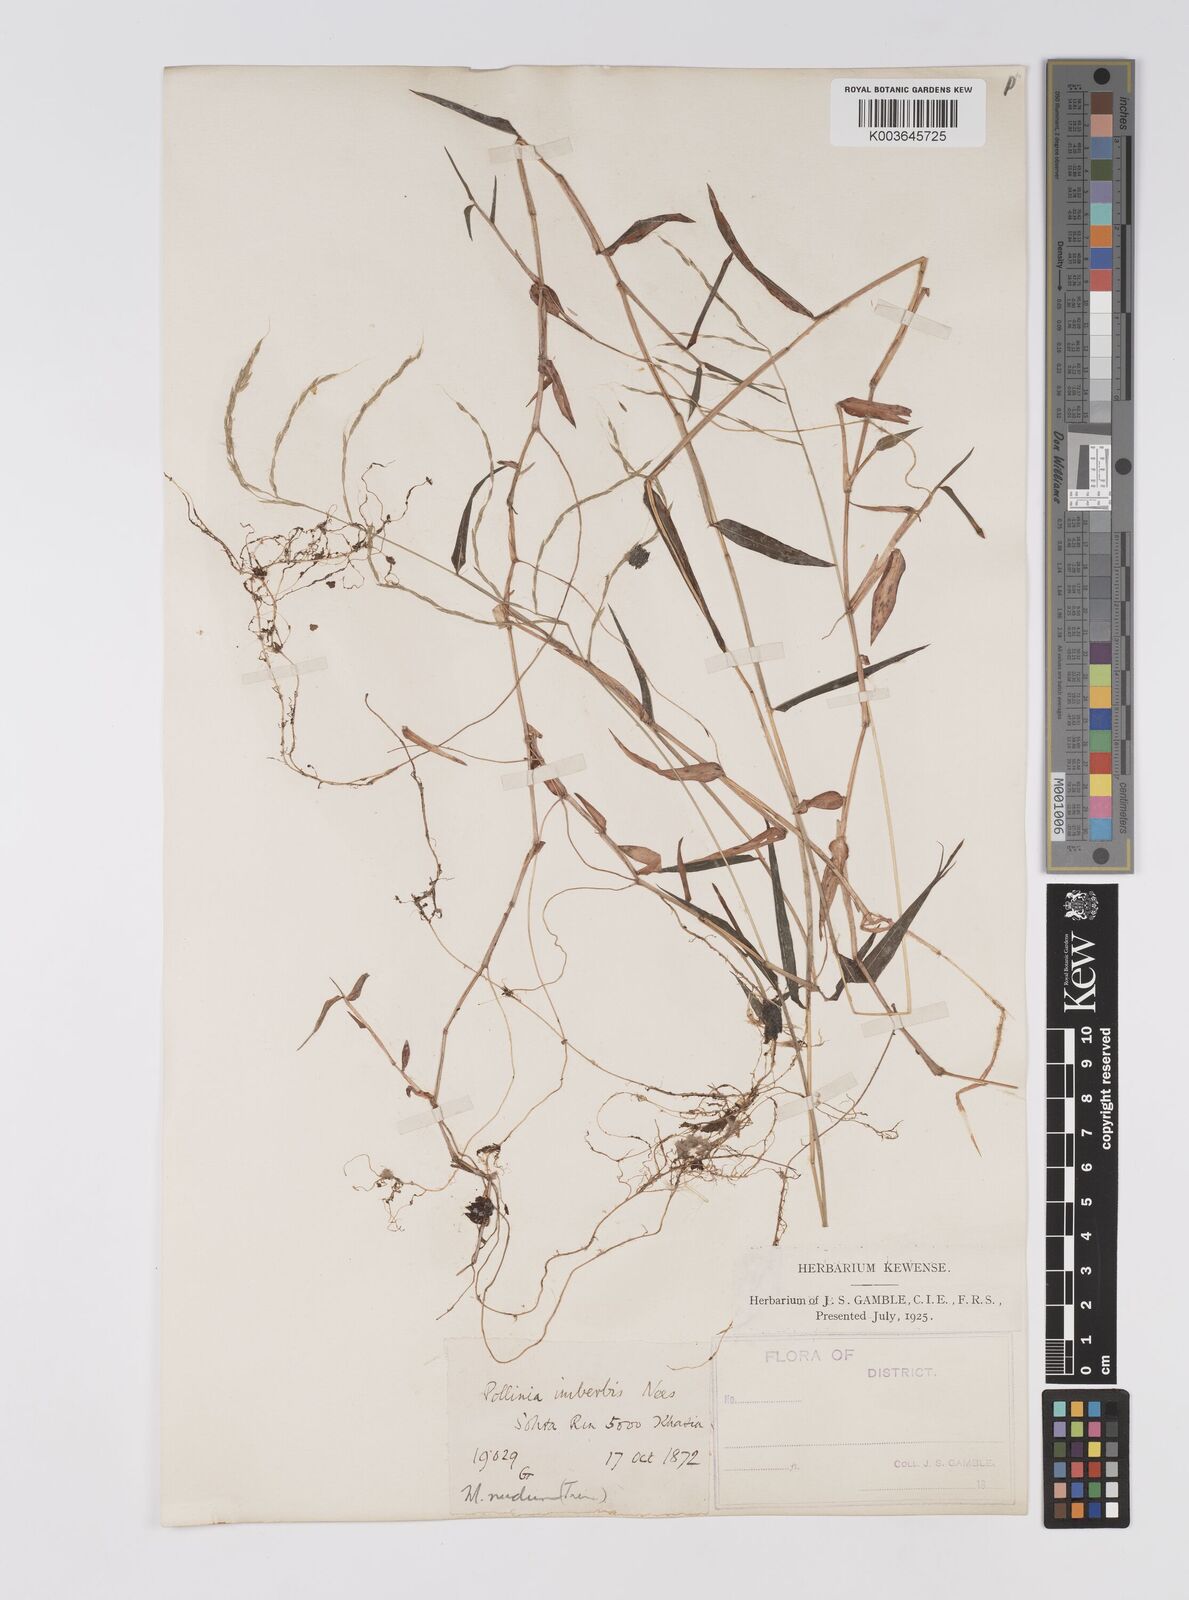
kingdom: Plantae
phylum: Tracheophyta
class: Liliopsida
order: Poales
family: Poaceae
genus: Microstegium
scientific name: Microstegium nudum
